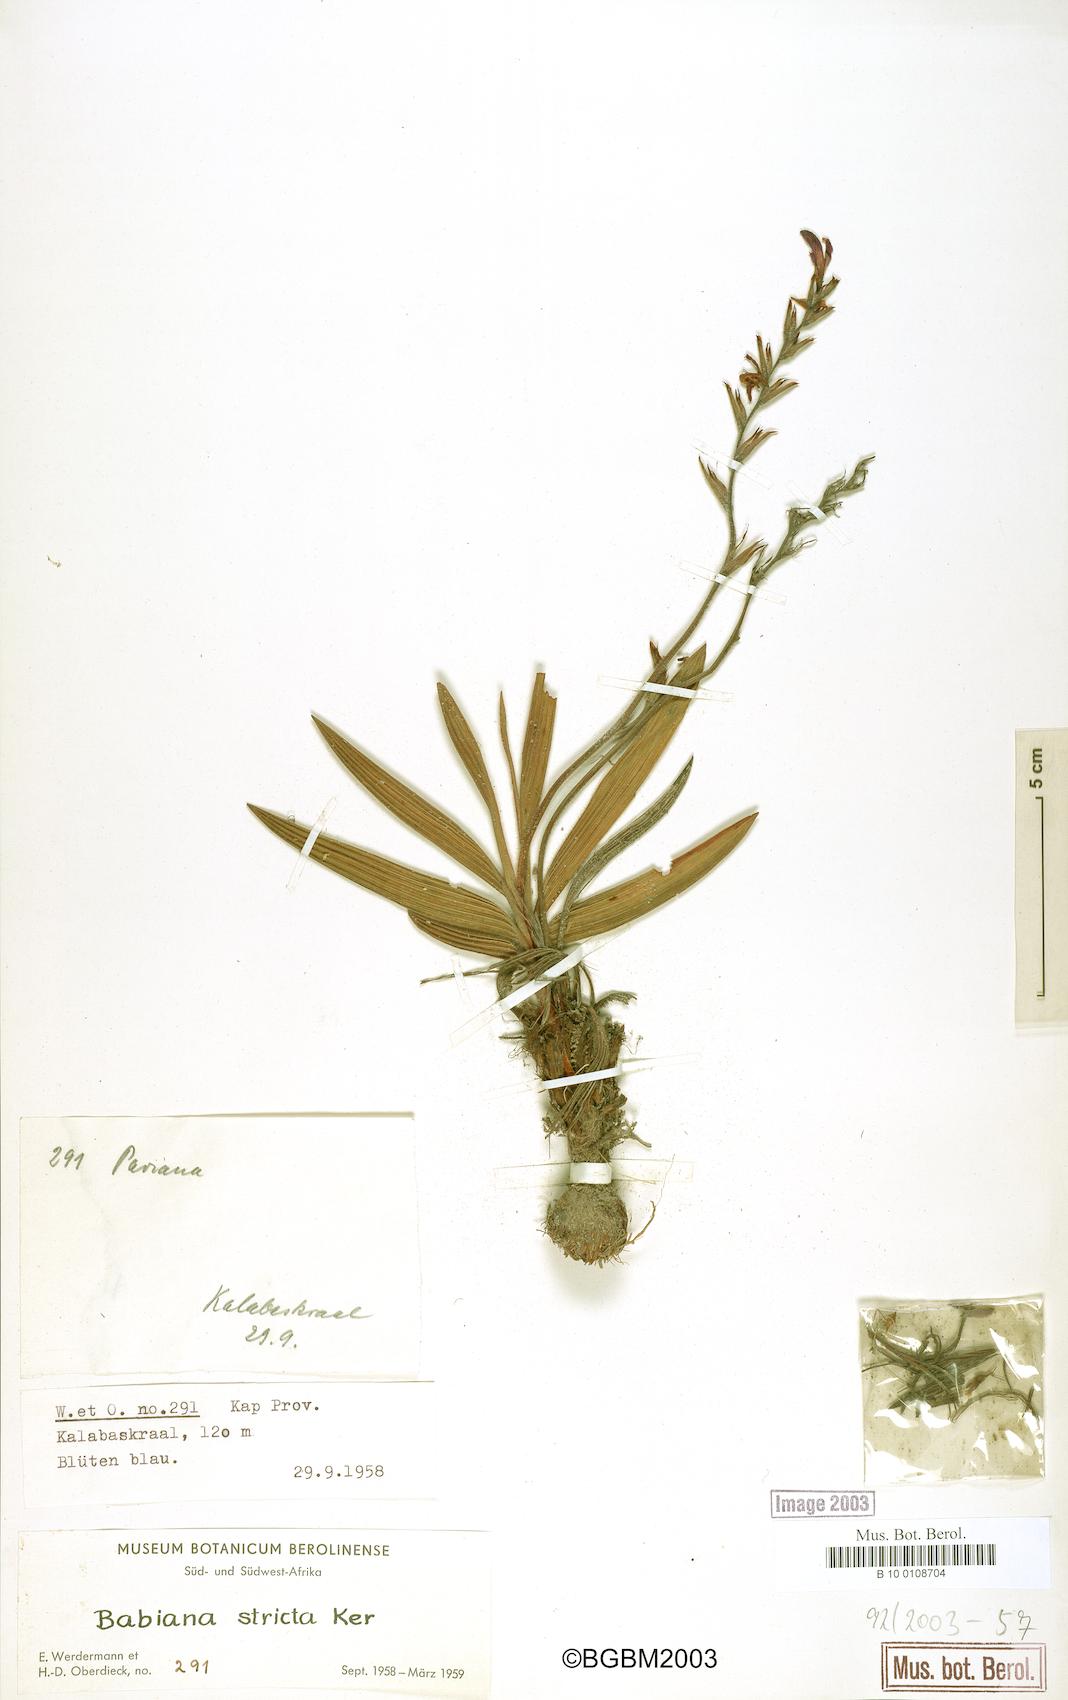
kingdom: Plantae
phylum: Tracheophyta
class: Liliopsida
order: Asparagales
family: Iridaceae
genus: Babiana
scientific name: Babiana nervosa
